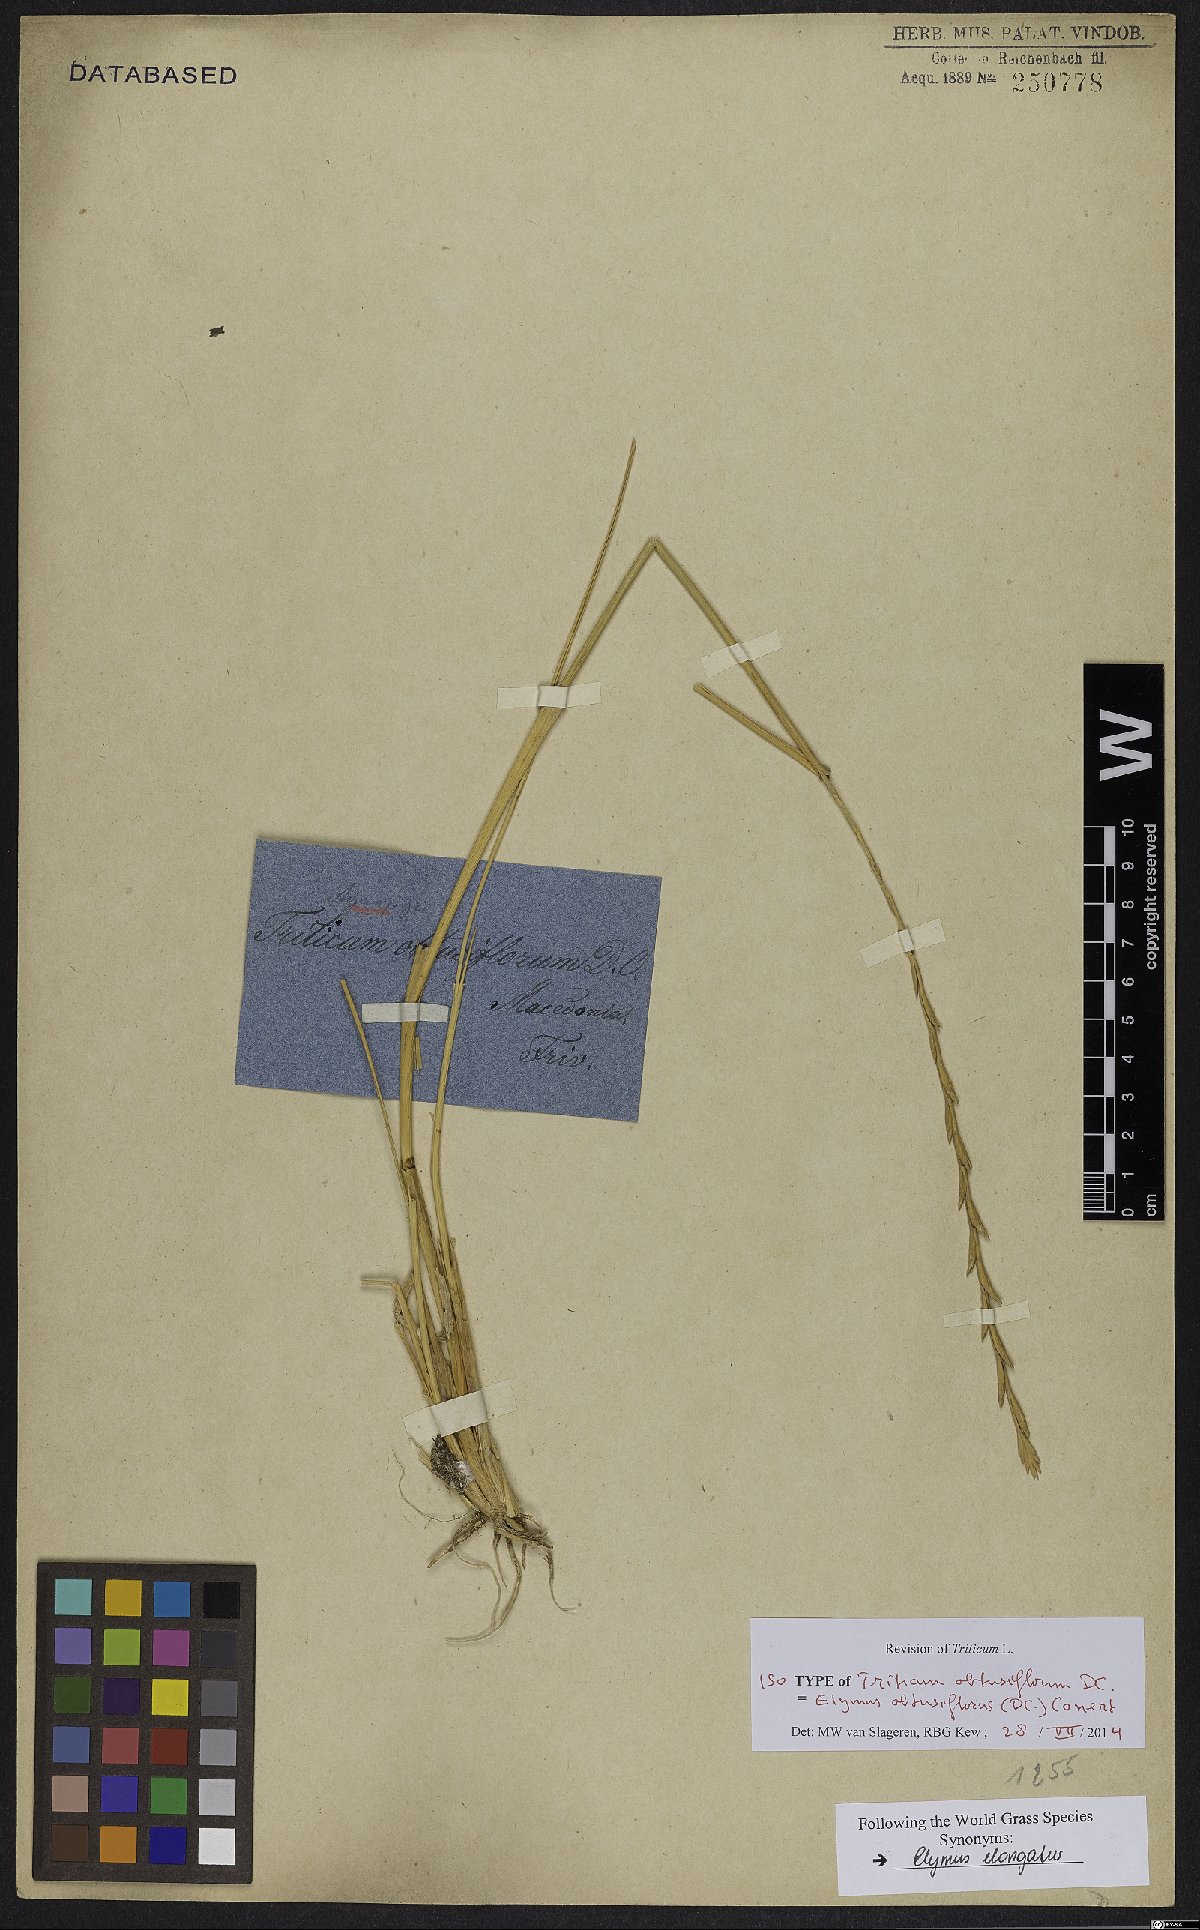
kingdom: Plantae
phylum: Tracheophyta
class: Liliopsida
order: Poales
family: Poaceae
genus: Thinopyrum
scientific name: Thinopyrum obtusiflorum
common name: Eurasian quackgrass
